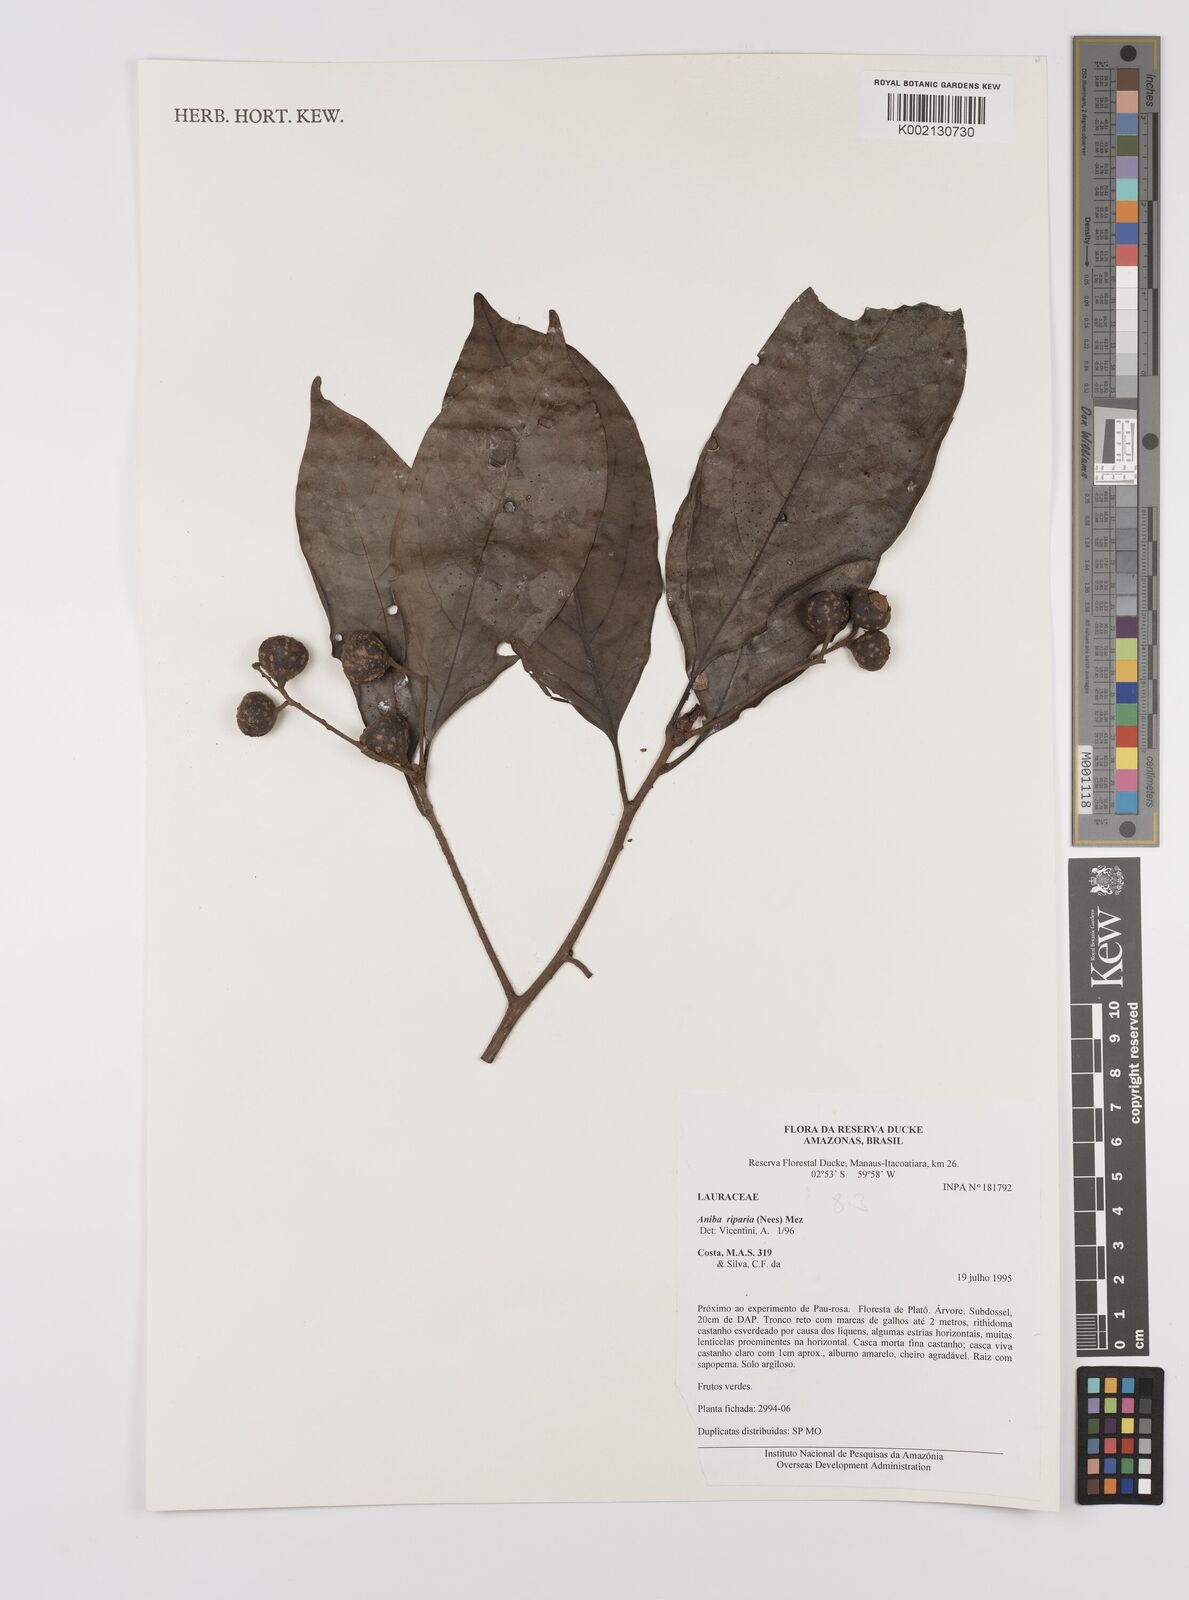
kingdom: Plantae
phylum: Tracheophyta
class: Magnoliopsida
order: Laurales
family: Lauraceae
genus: Aniba
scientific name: Aniba riparia
